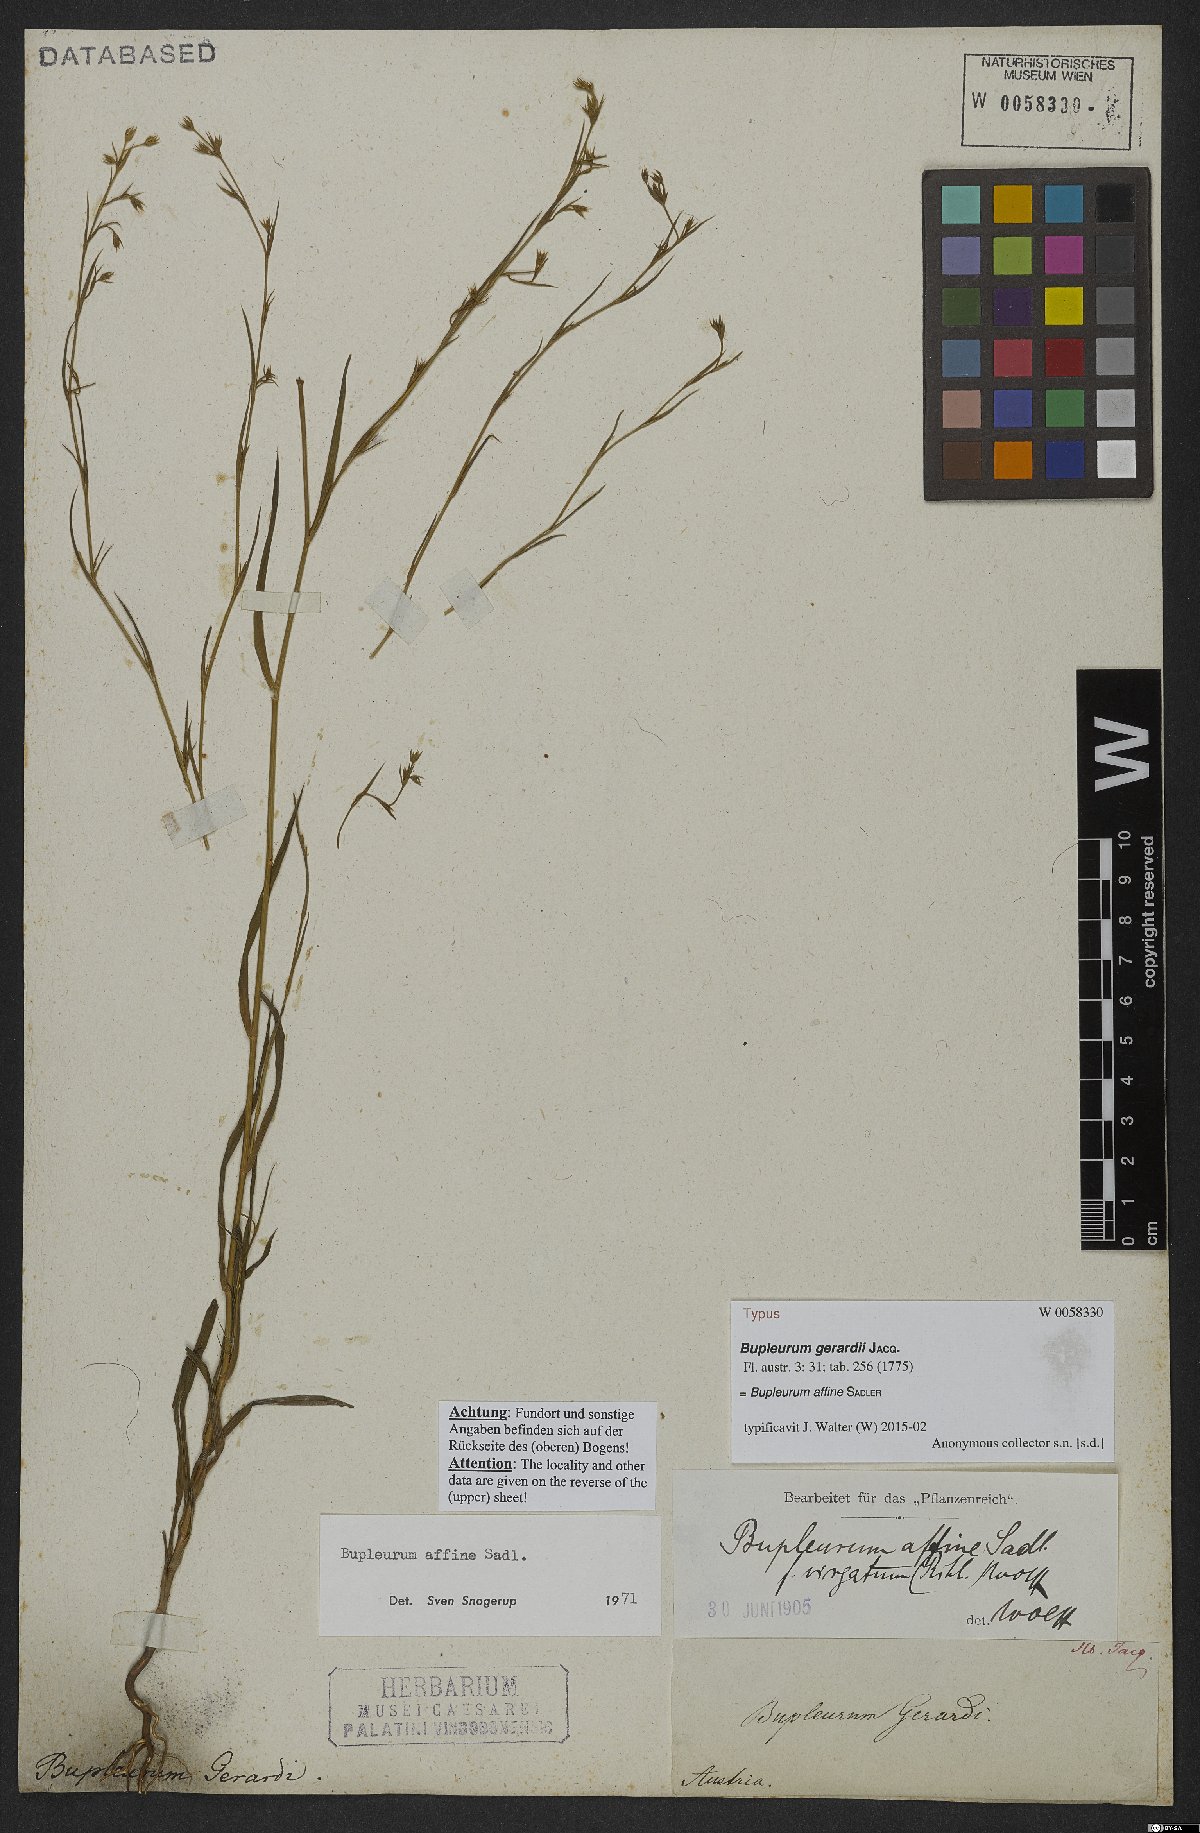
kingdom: Plantae
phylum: Tracheophyta
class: Magnoliopsida
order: Apiales
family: Apiaceae
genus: Bupleurum
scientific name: Bupleurum affine
